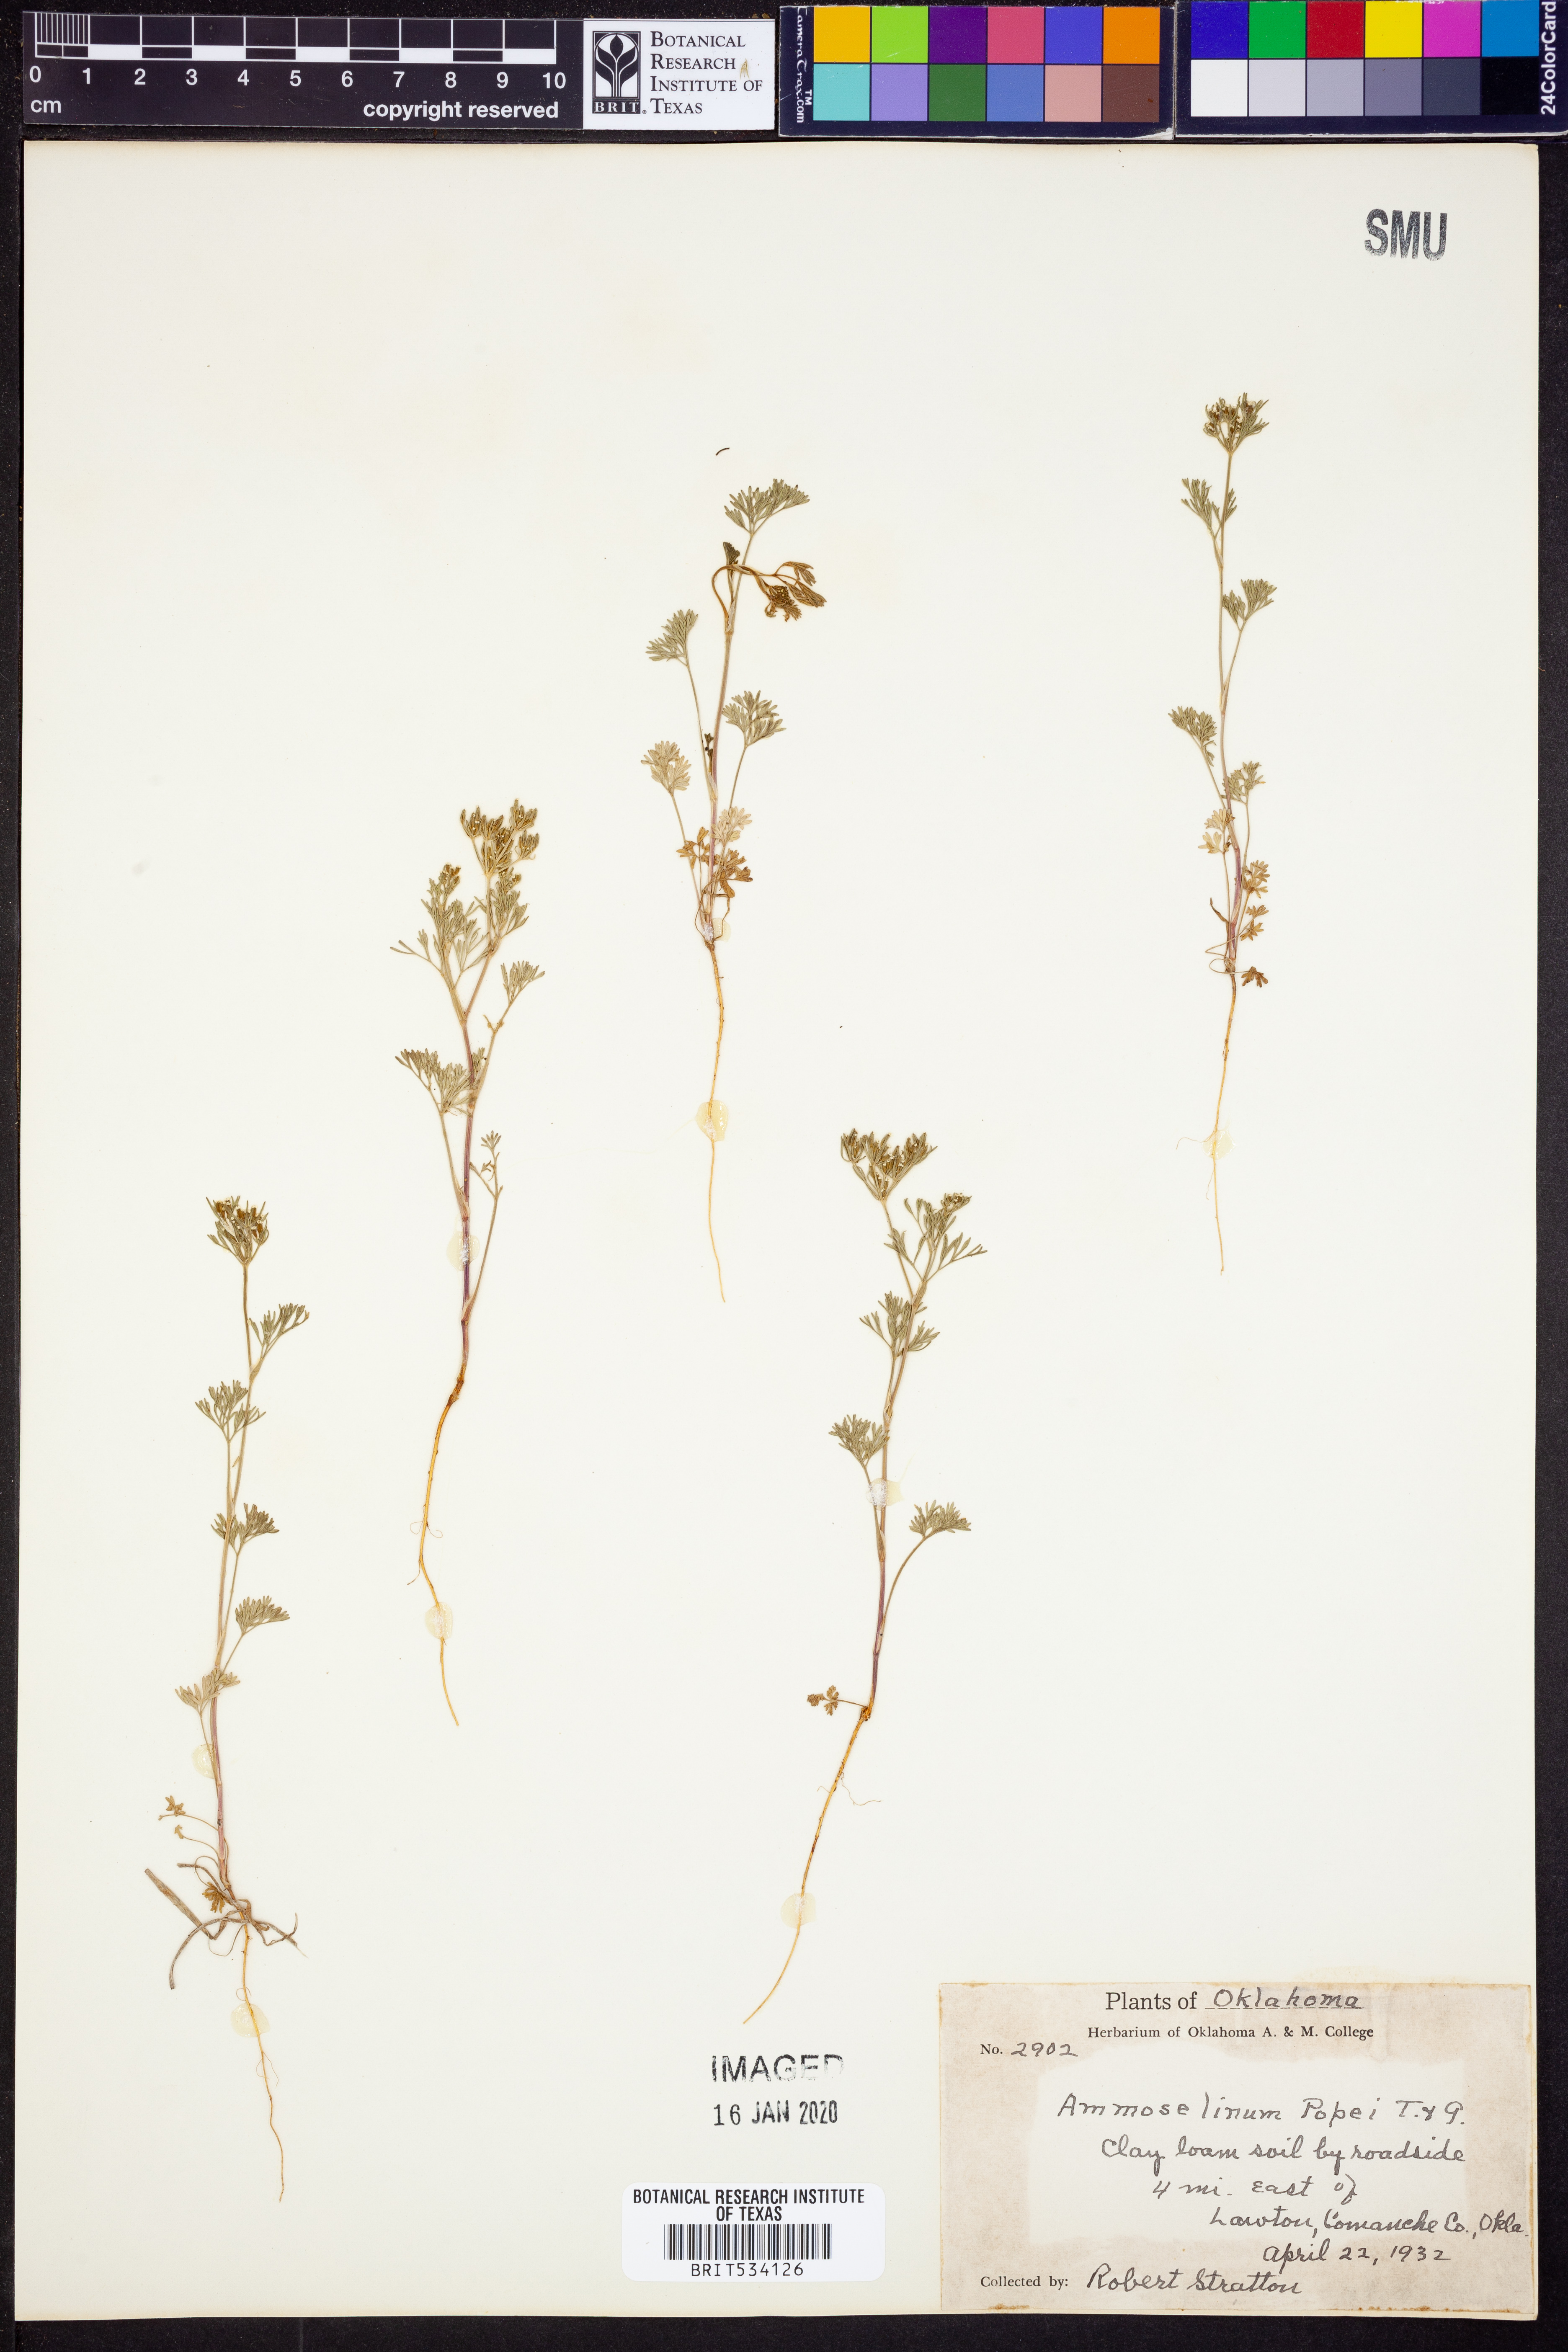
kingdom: Plantae
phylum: Tracheophyta
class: Magnoliopsida
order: Apiales
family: Apiaceae
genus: Ammoselinum
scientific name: Ammoselinum popei
